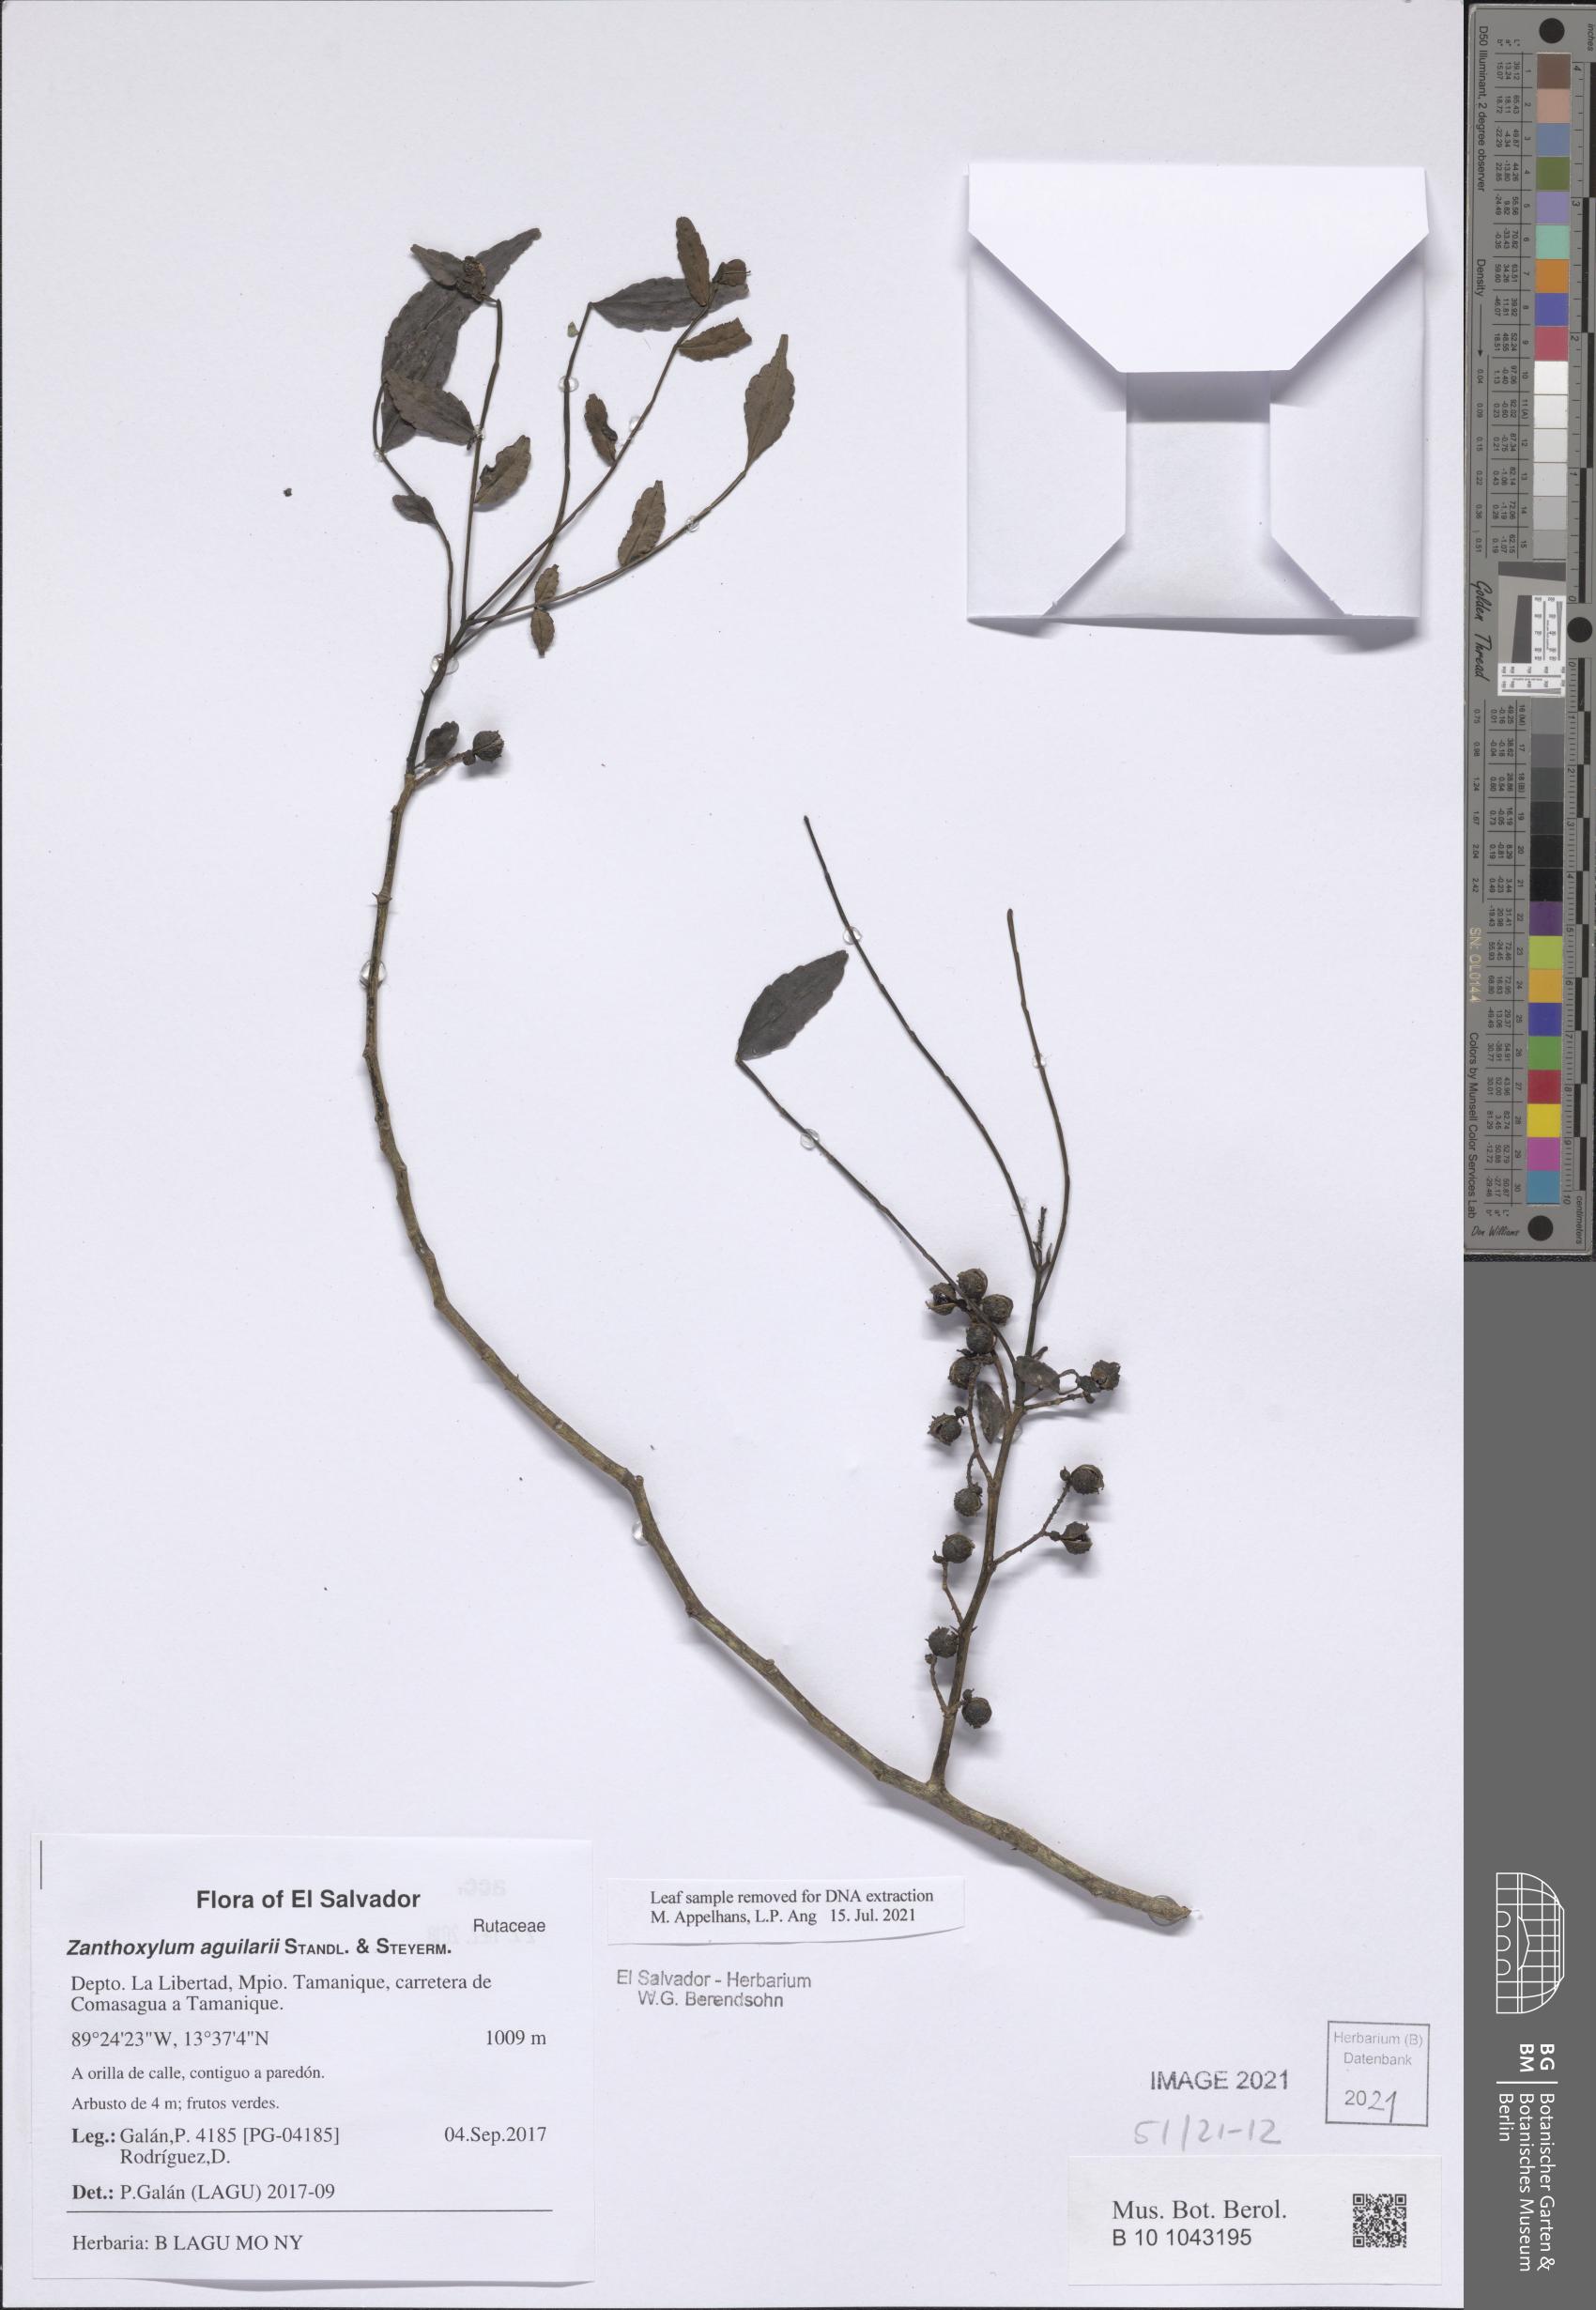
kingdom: Plantae
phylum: Tracheophyta
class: Magnoliopsida
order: Sapindales
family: Rutaceae
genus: Zanthoxylum
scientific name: Zanthoxylum fagara
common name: Lime prickly-ash
